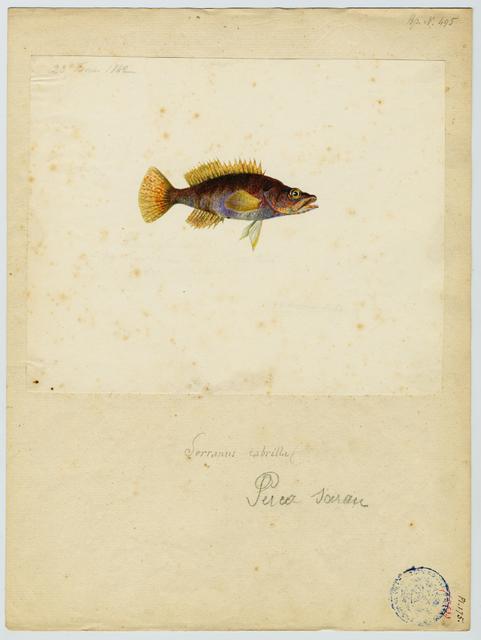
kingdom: Animalia
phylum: Chordata
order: Perciformes
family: Serranidae
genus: Serranus
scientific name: Serranus scriba
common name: Painted comber
